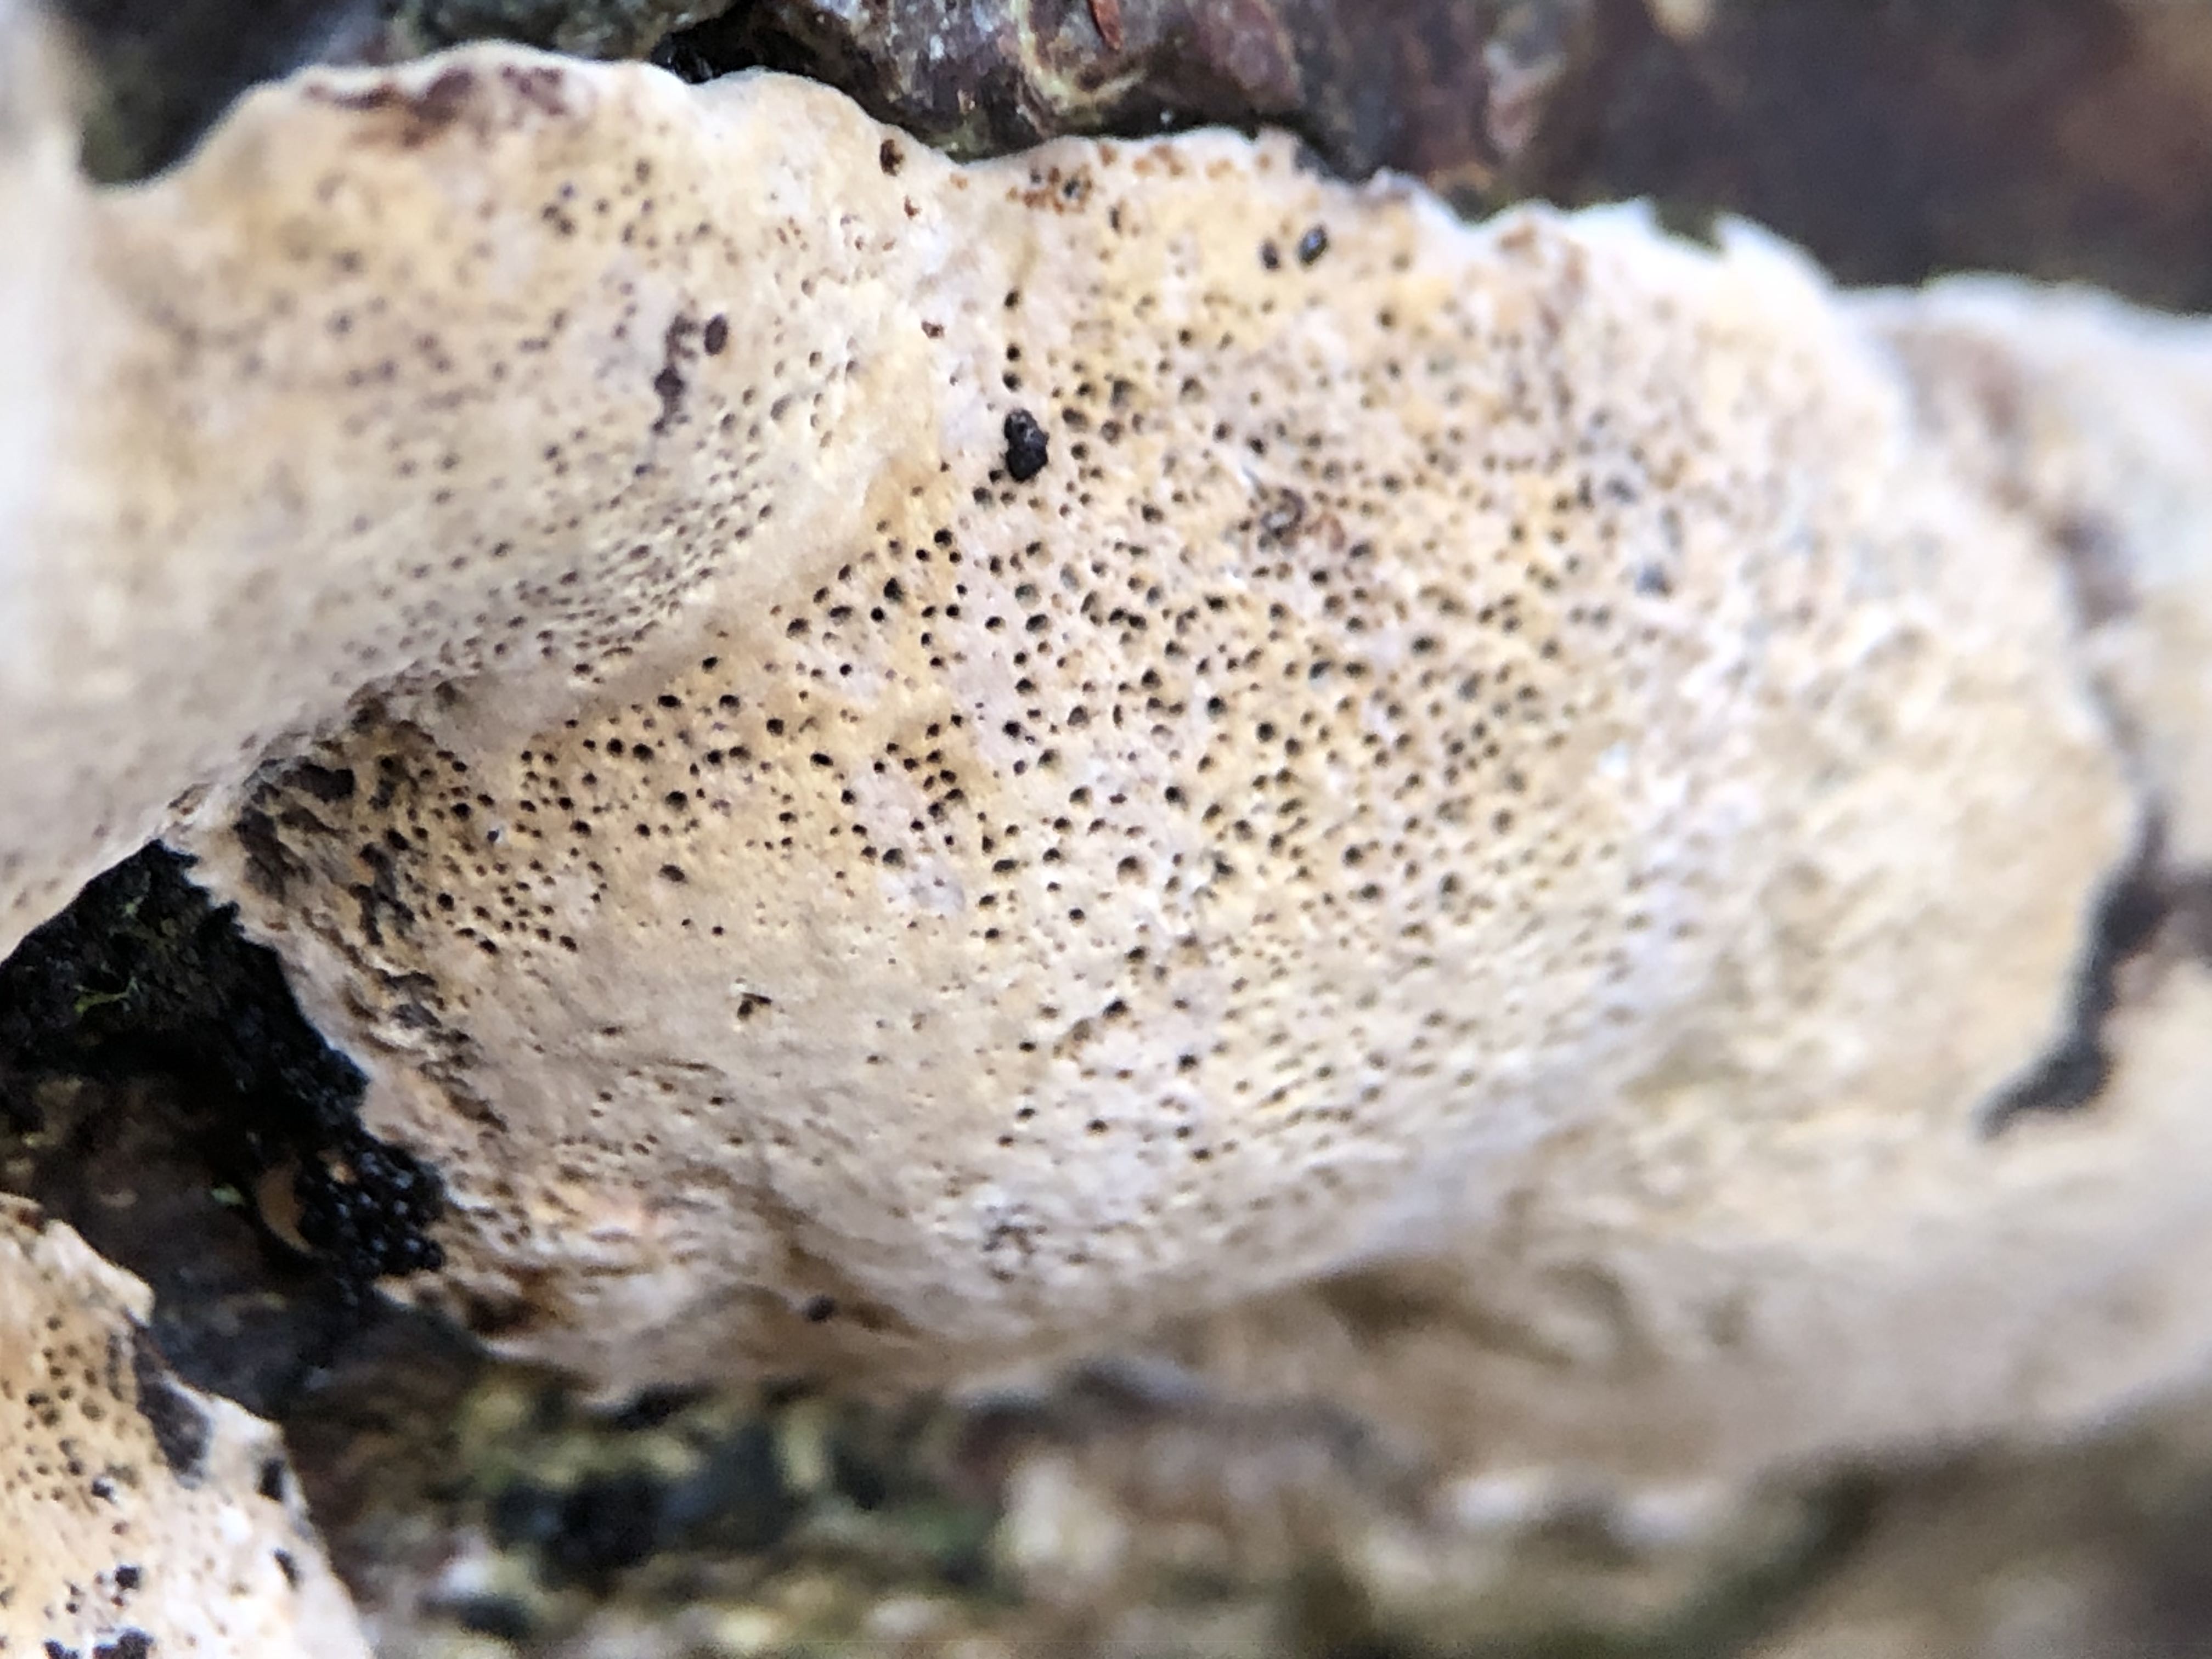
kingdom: Fungi
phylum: Basidiomycota
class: Agaricomycetes
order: Hymenochaetales
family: Hymenochaetaceae
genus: Phellinus
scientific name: Phellinus igniarius
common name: almindelig ildporesvamp
